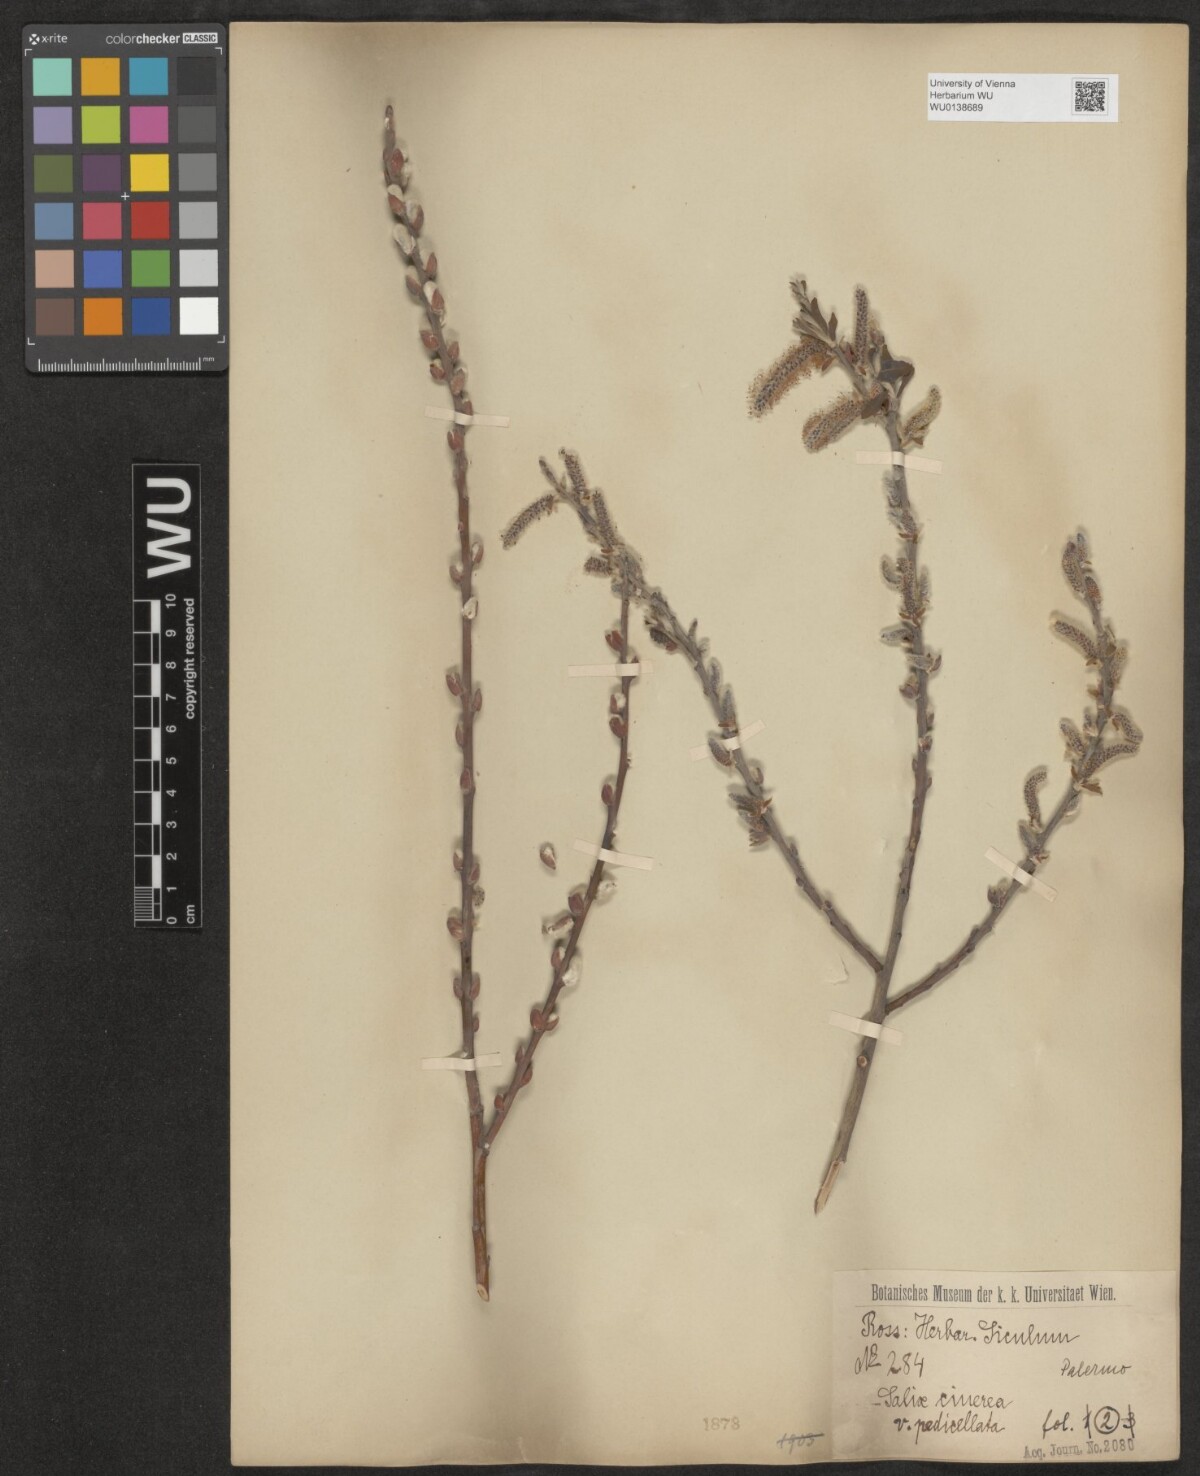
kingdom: Plantae
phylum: Tracheophyta
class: Magnoliopsida
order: Malpighiales
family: Salicaceae
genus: Salix
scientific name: Salix pedicellata
